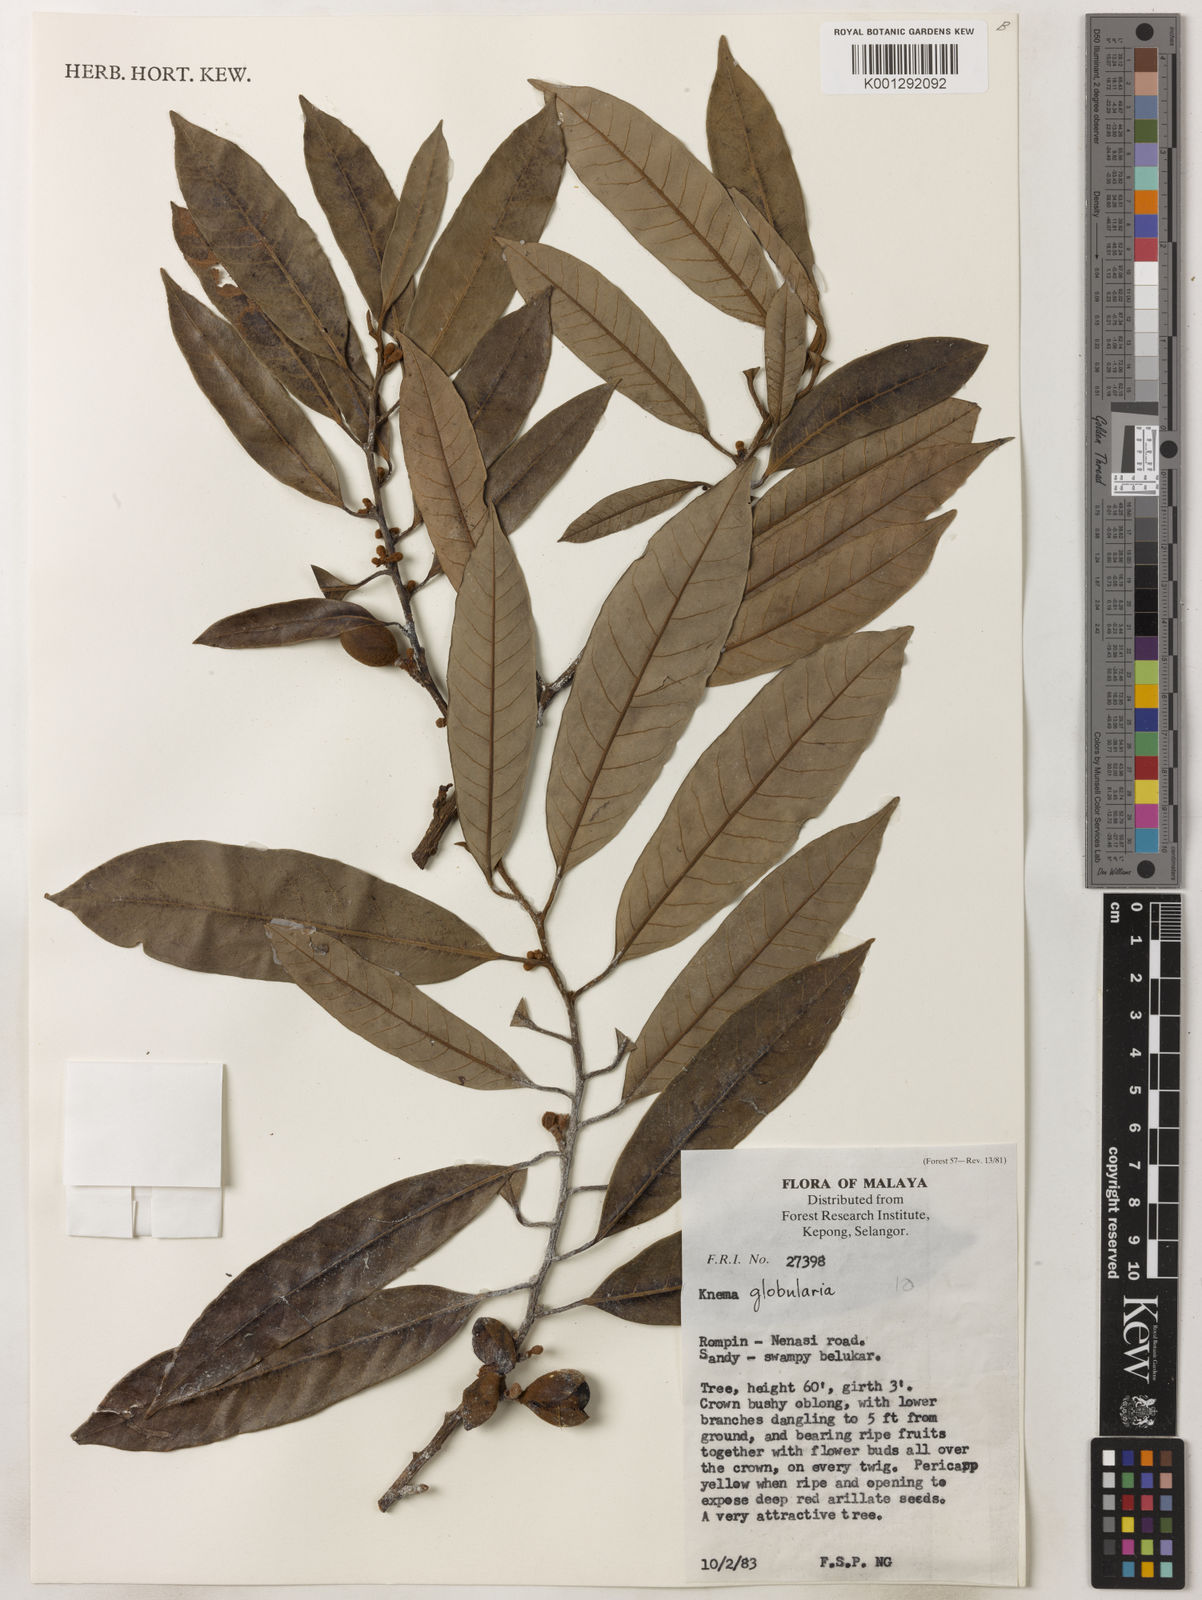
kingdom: Plantae
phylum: Tracheophyta
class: Magnoliopsida
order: Magnoliales
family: Myristicaceae
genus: Knema
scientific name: Knema globularia
